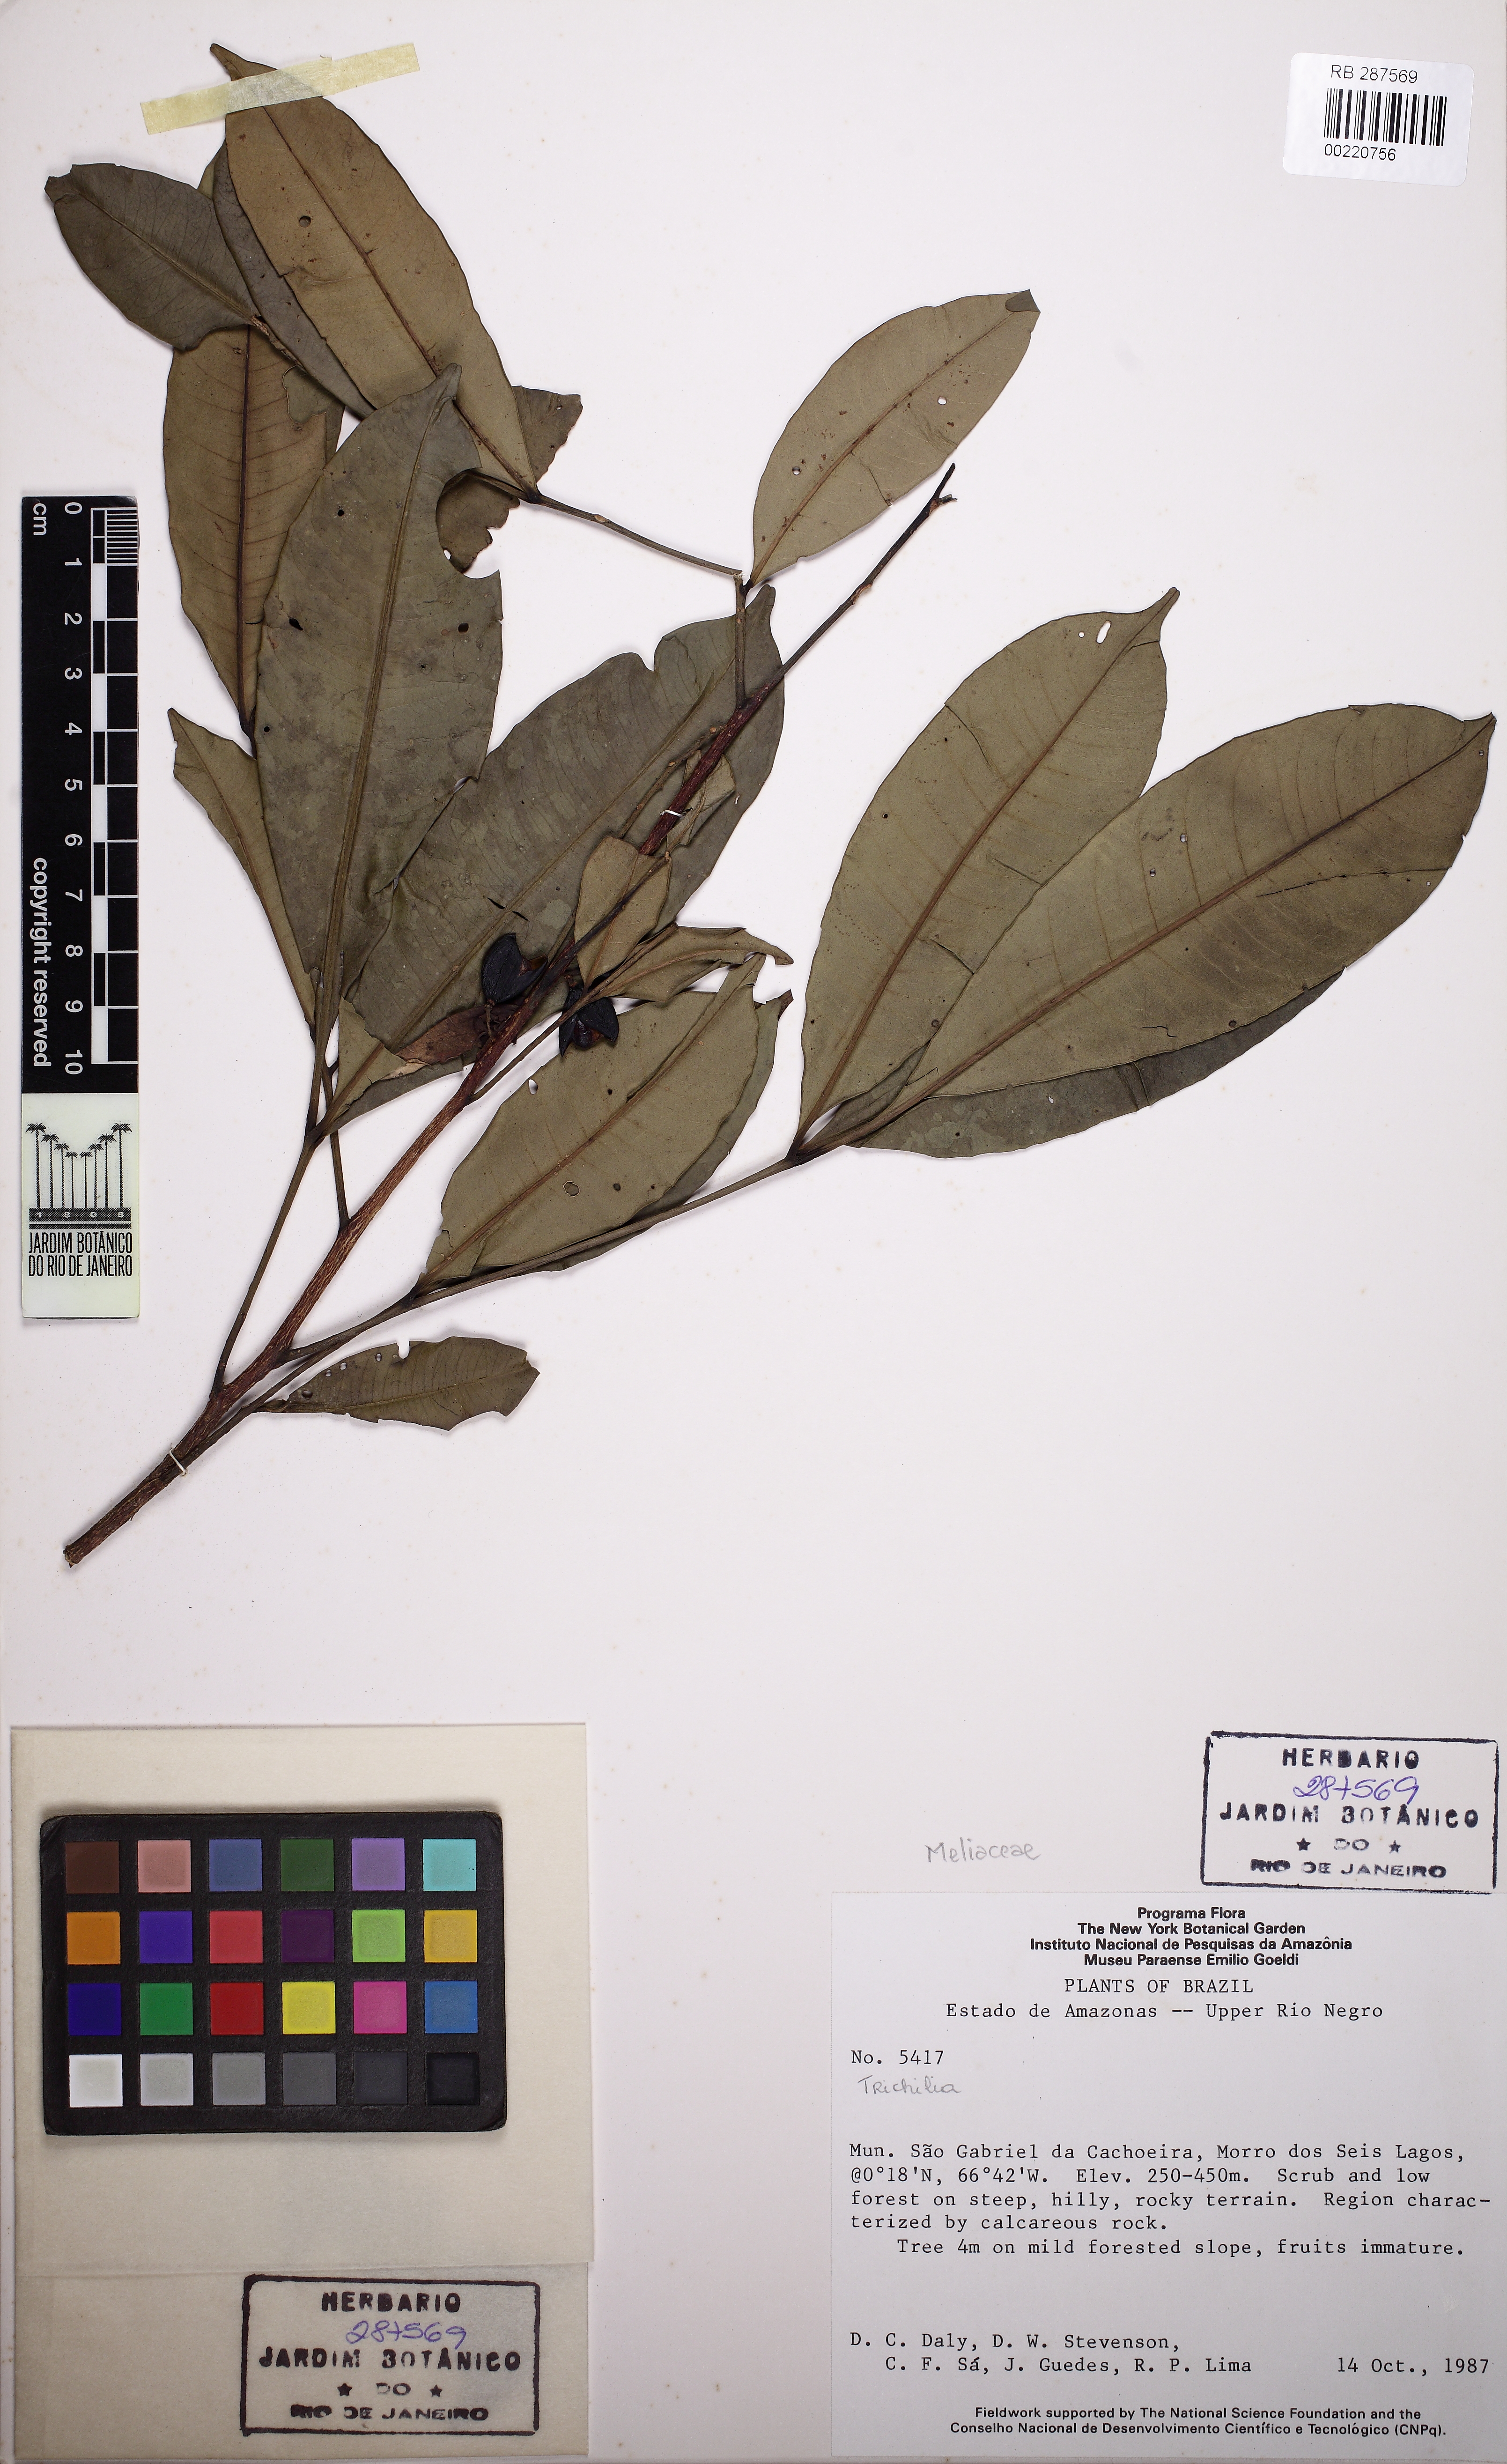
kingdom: Plantae
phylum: Tracheophyta
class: Magnoliopsida
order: Sapindales
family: Meliaceae
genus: Trichilia
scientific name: Trichilia martiana
